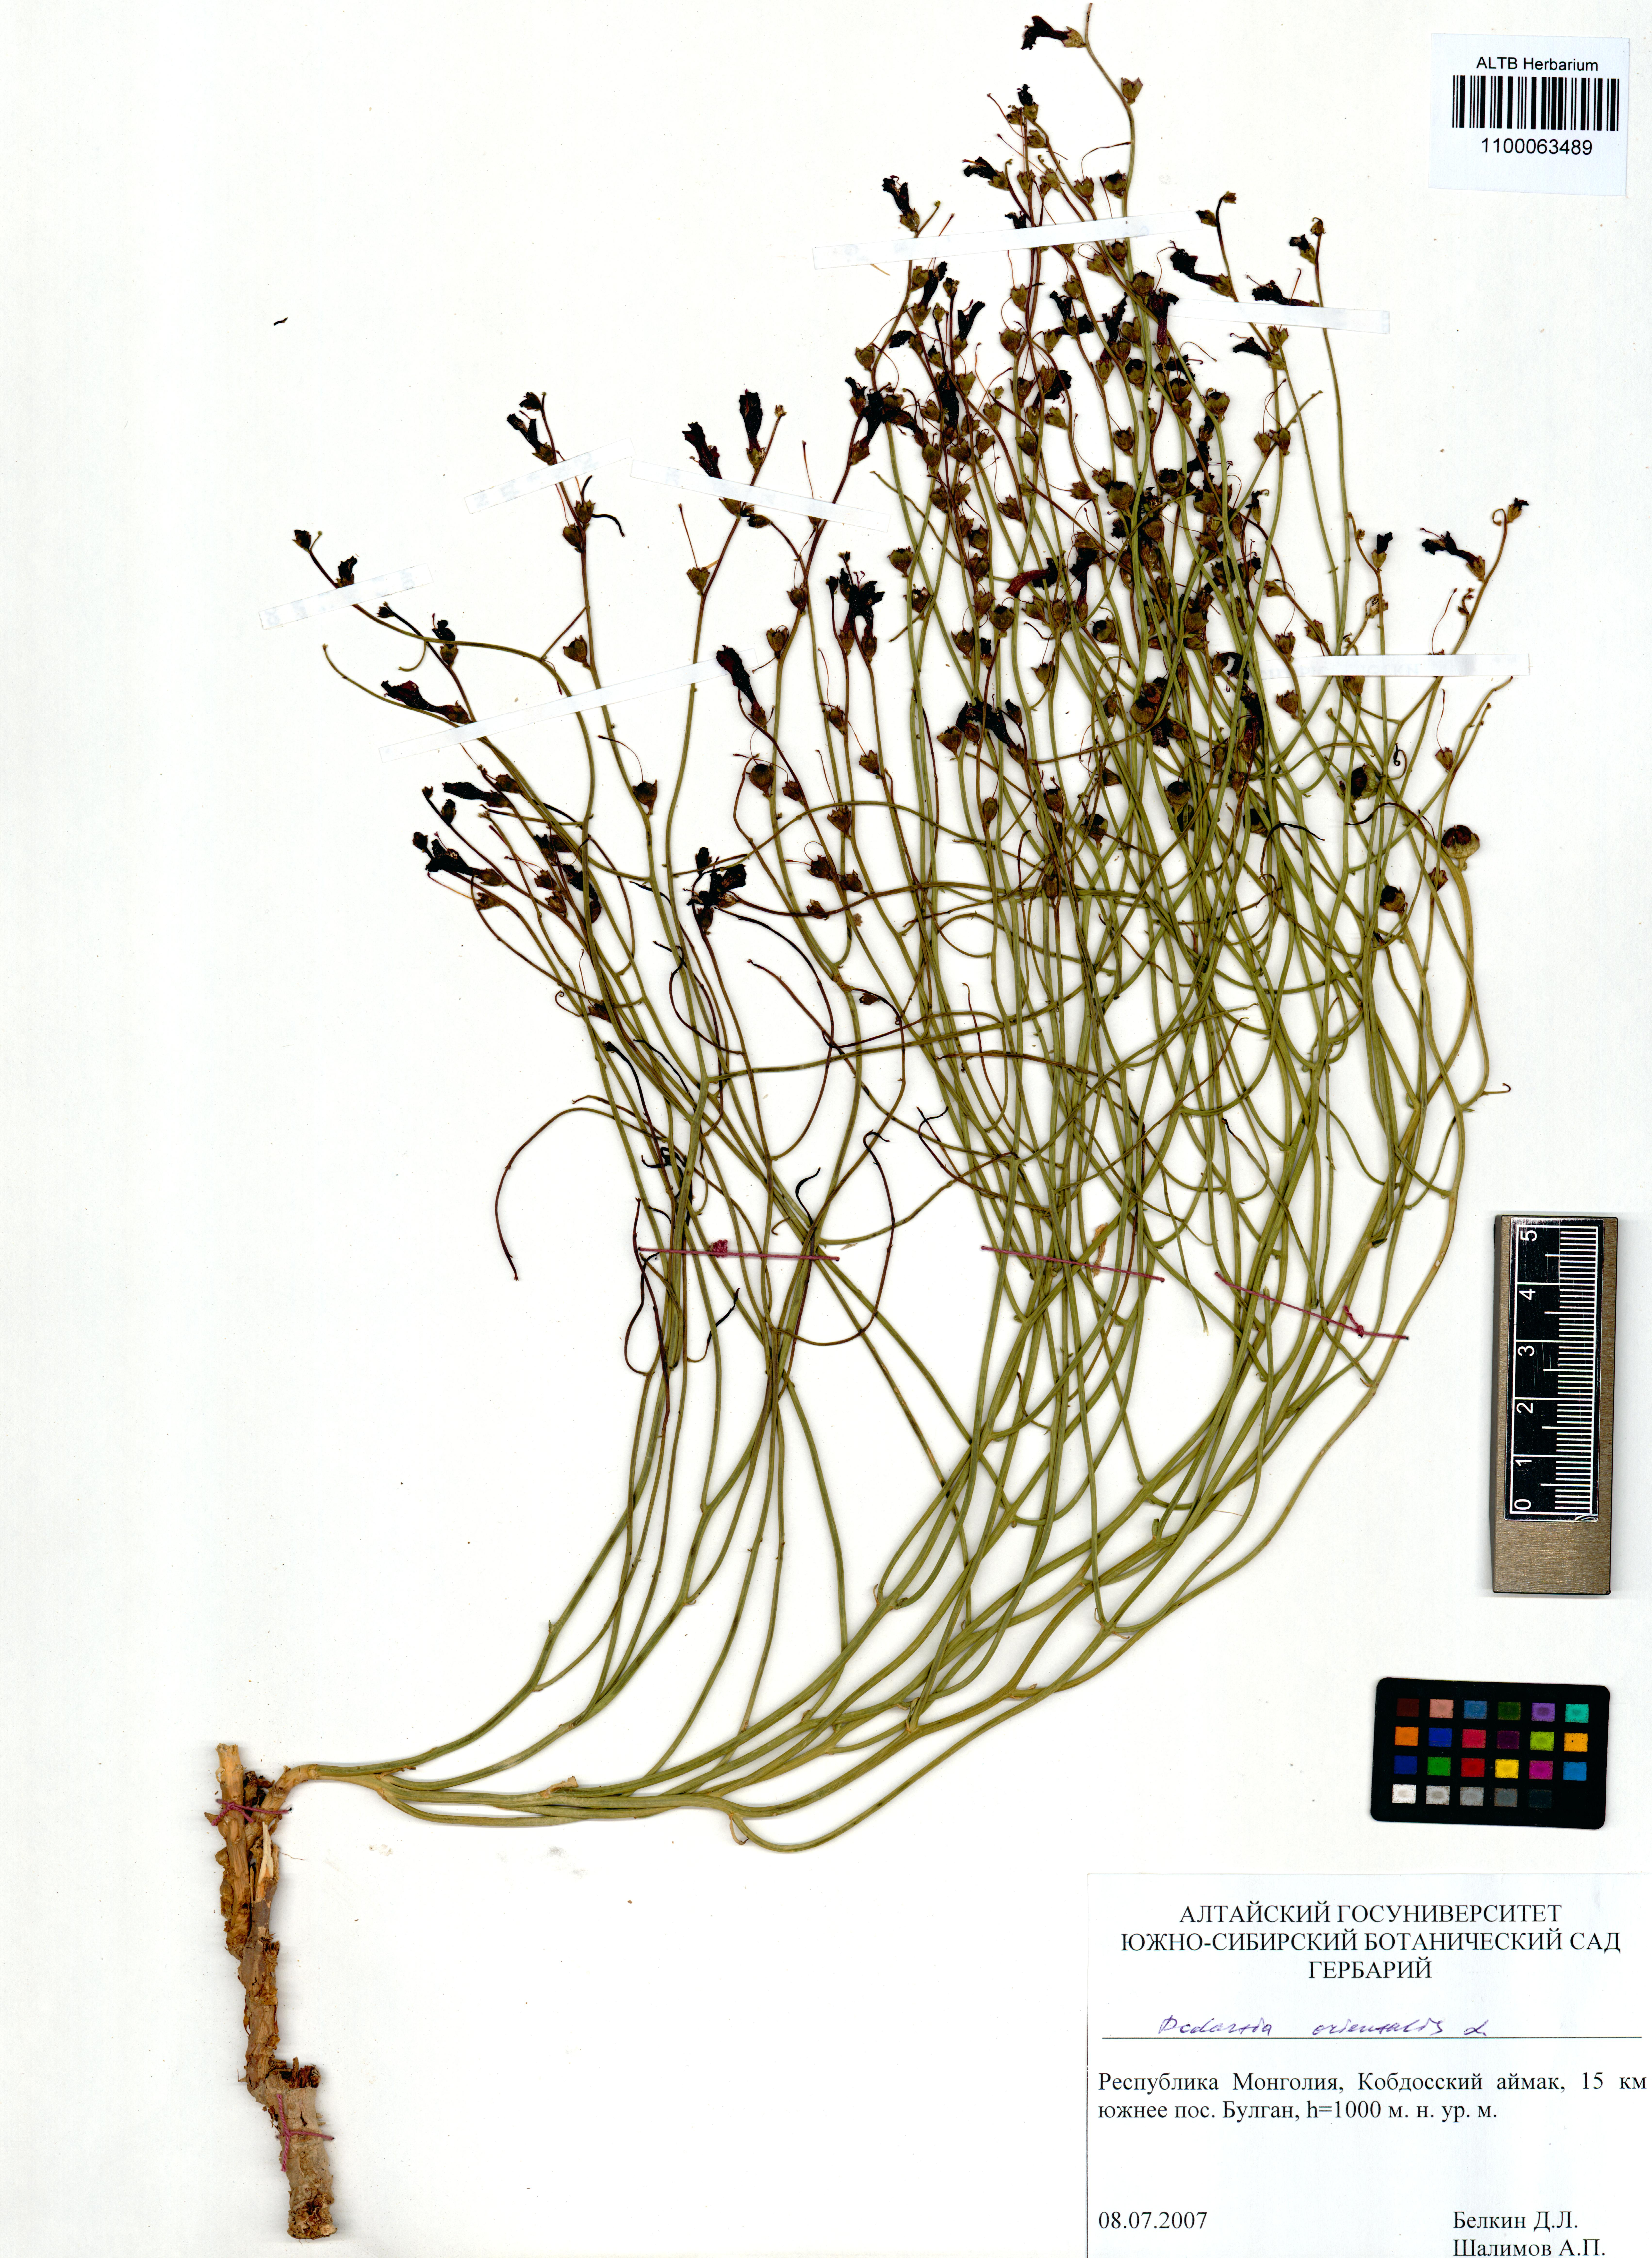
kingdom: Plantae
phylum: Tracheophyta
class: Magnoliopsida
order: Lamiales
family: Mazaceae
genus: Dodartia
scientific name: Dodartia orientalis
